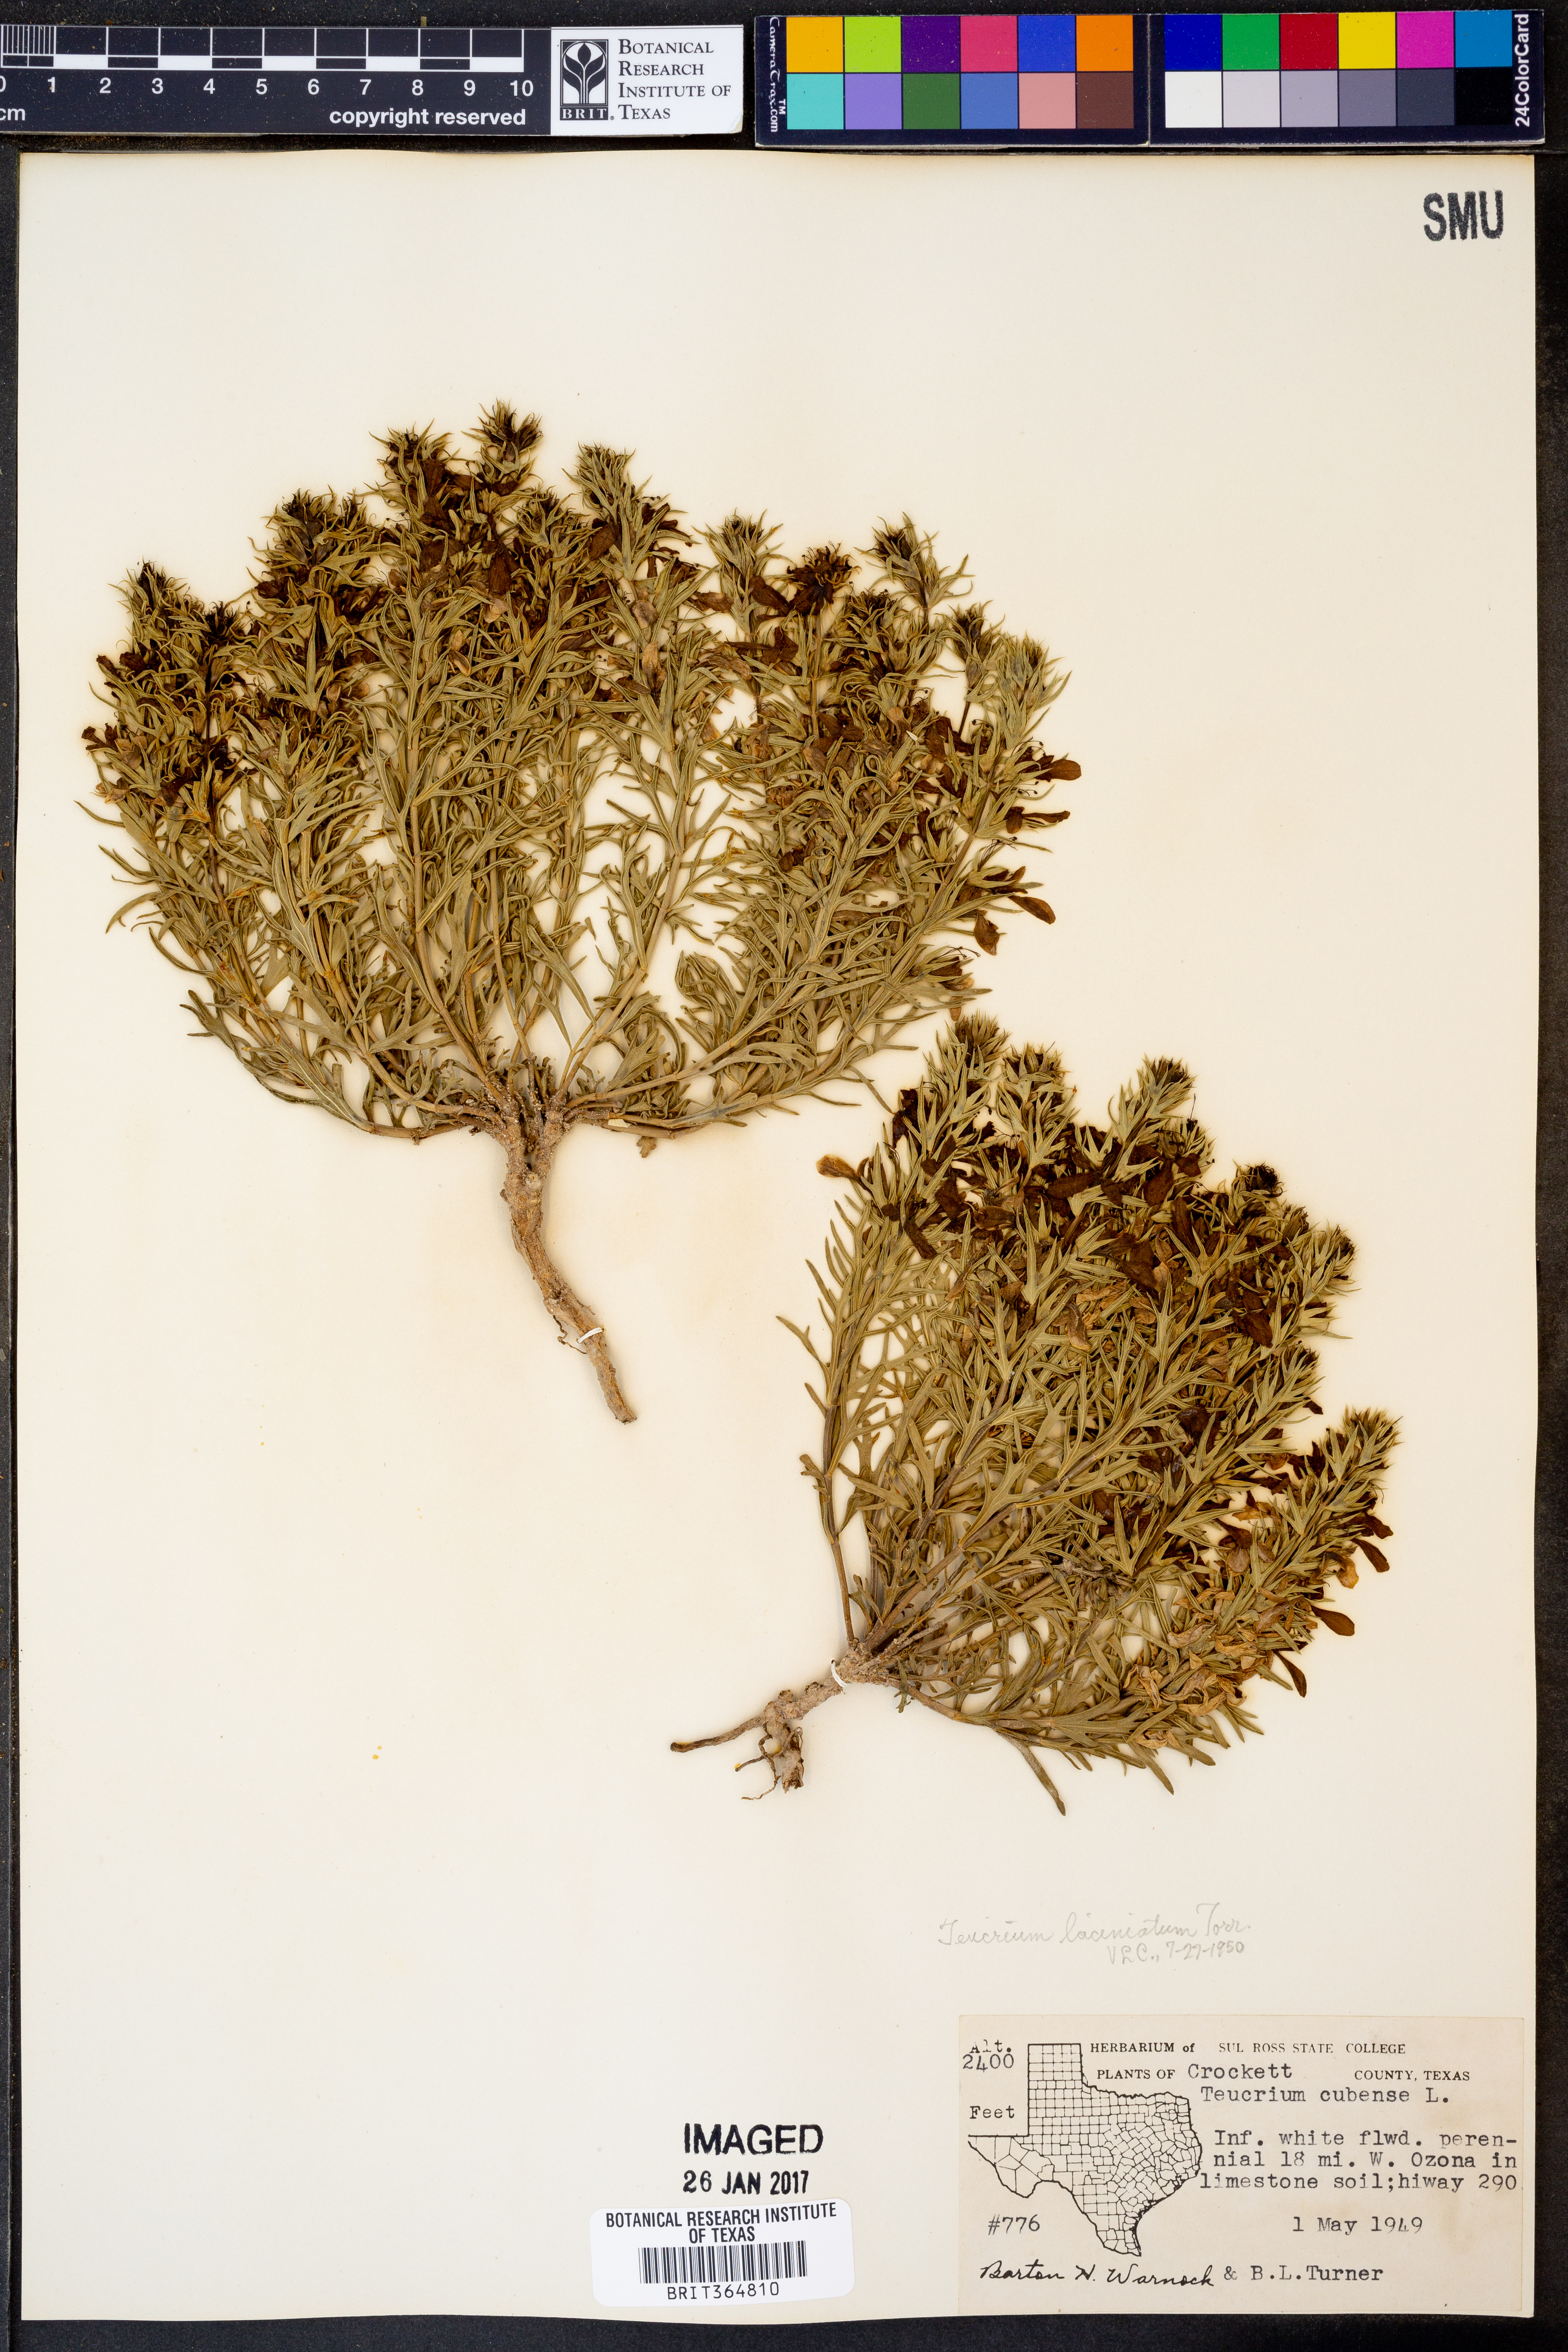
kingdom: Plantae
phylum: Tracheophyta
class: Magnoliopsida
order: Lamiales
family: Lamiaceae
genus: Teucrium
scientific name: Teucrium laciniatum
